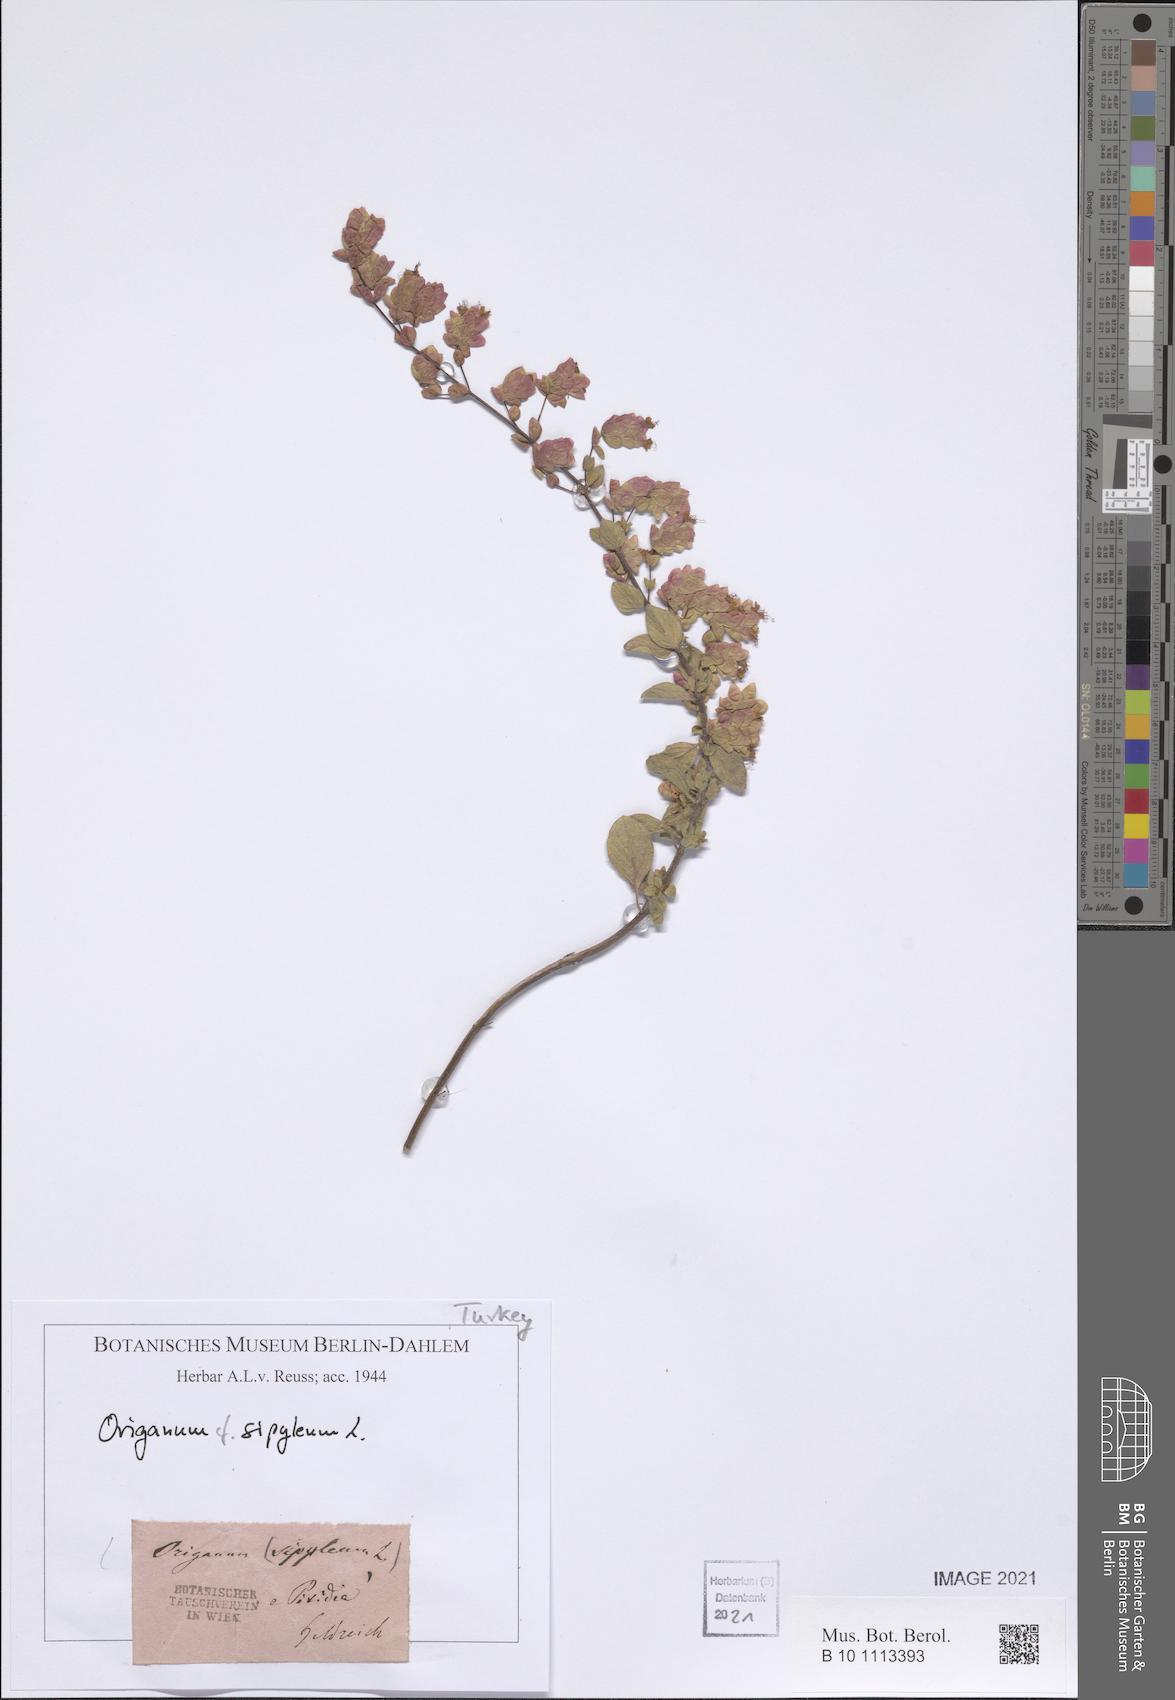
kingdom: Plantae
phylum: Tracheophyta
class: Magnoliopsida
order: Lamiales
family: Lamiaceae
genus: Origanum
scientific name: Origanum sipyleum
